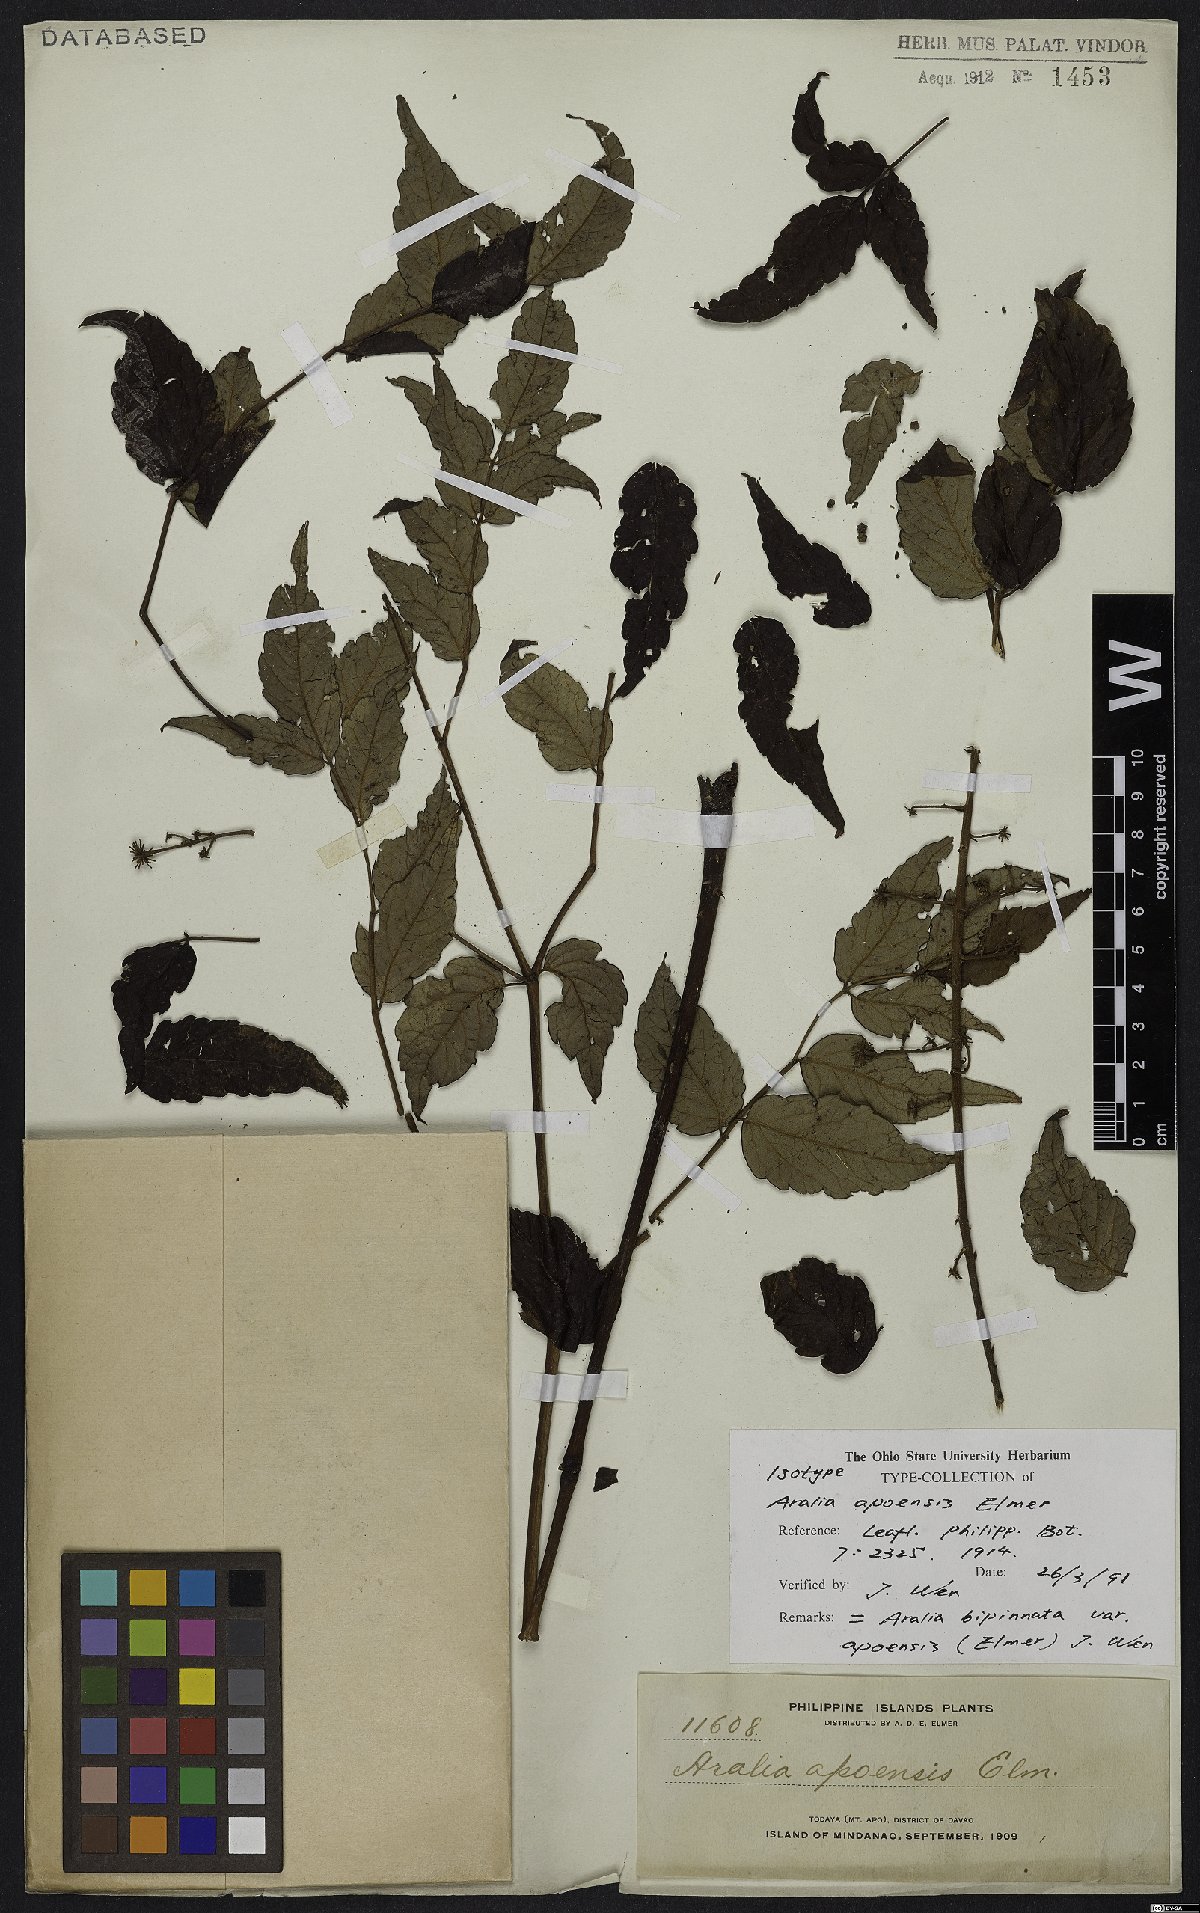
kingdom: Plantae
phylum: Tracheophyta
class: Magnoliopsida
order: Apiales
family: Araliaceae
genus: Aralia
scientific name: Aralia bipinnata
